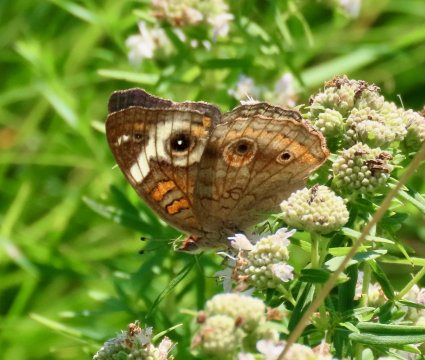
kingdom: Animalia
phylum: Arthropoda
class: Insecta
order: Lepidoptera
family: Nymphalidae
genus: Junonia
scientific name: Junonia coenia
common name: Common Buckeye
